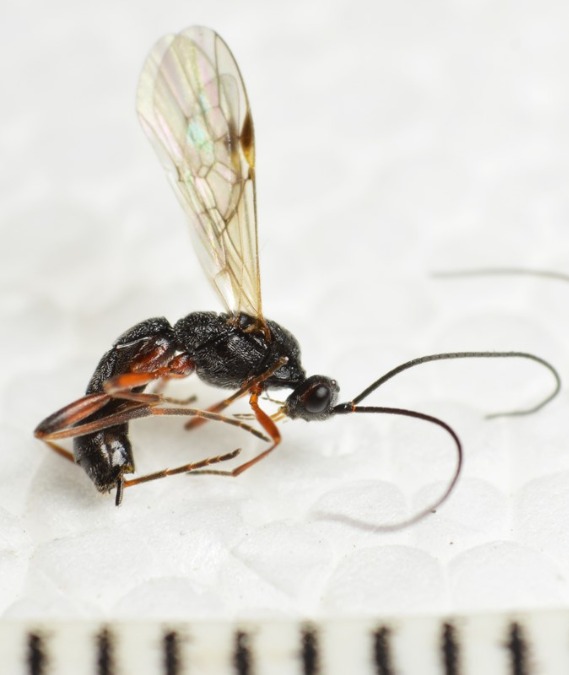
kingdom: Animalia
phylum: Arthropoda
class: Insecta
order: Hymenoptera
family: Braconidae
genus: Aleiodes
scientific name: Aleiodes coxalis
